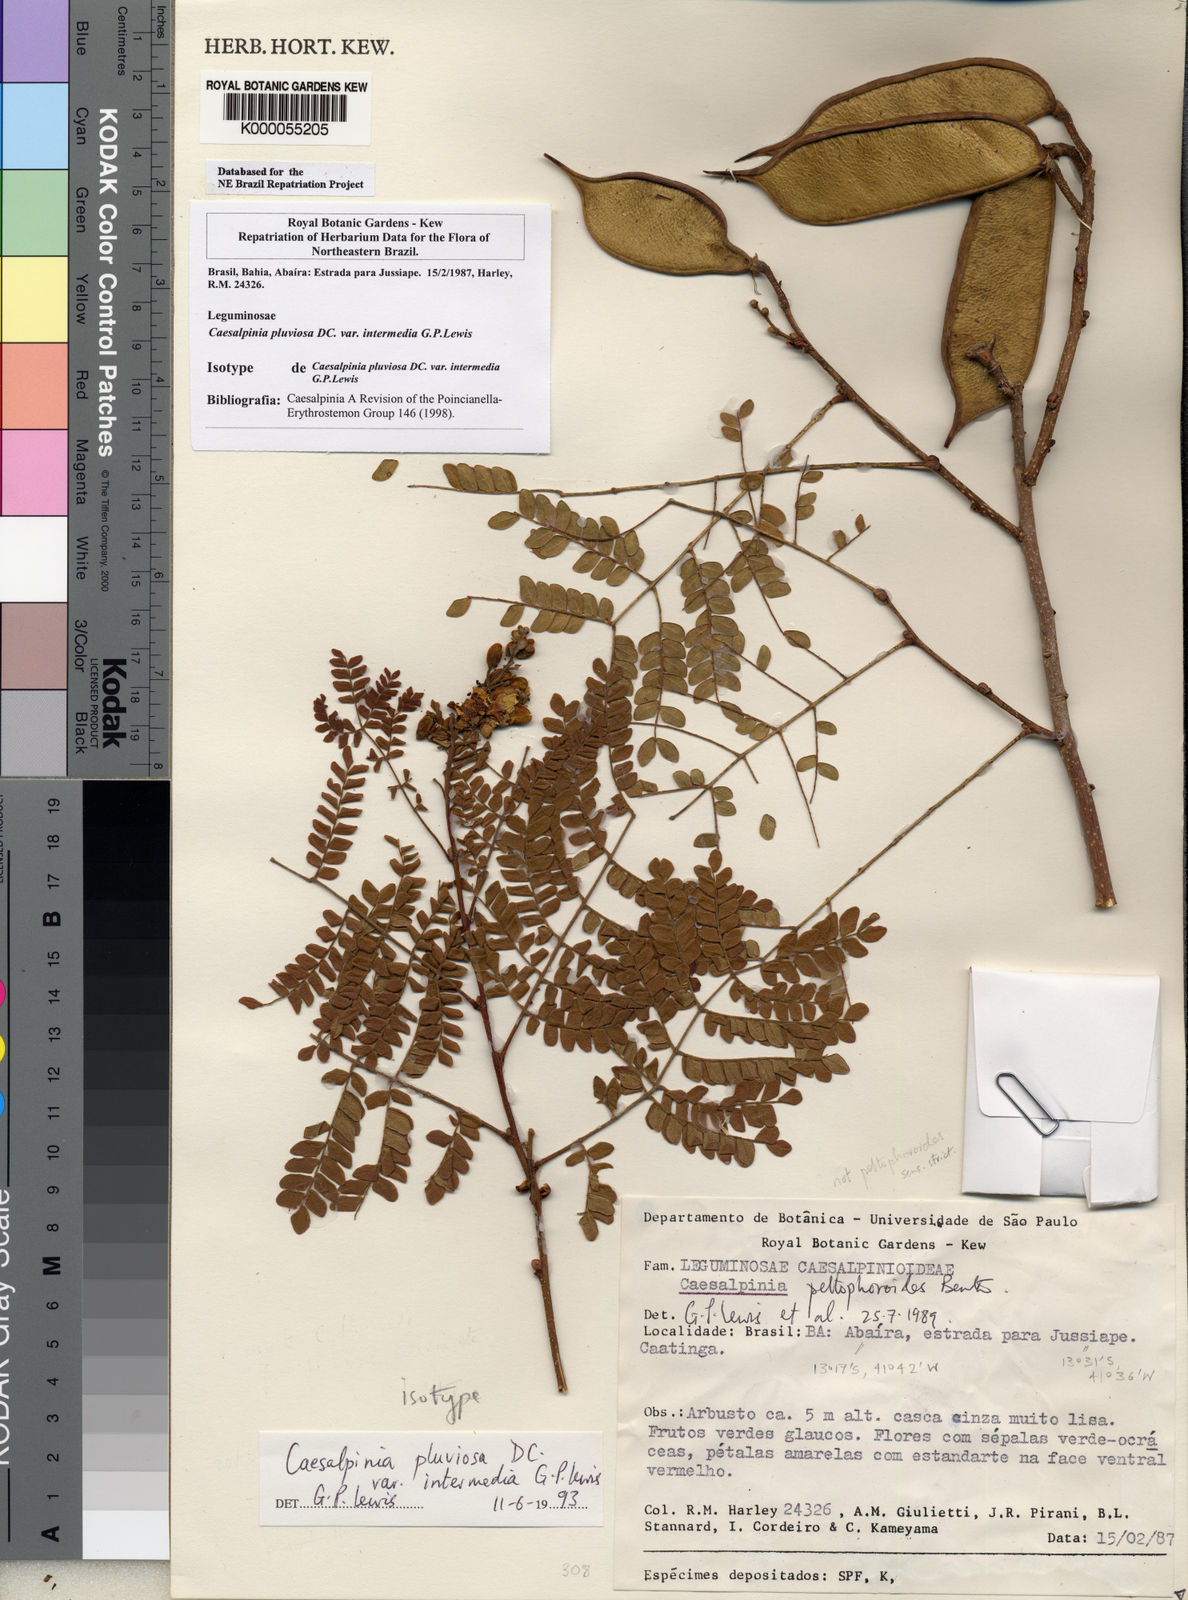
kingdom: Plantae
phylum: Tracheophyta
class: Magnoliopsida
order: Fabales
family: Fabaceae
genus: Cenostigma
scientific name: Cenostigma pluviosum
